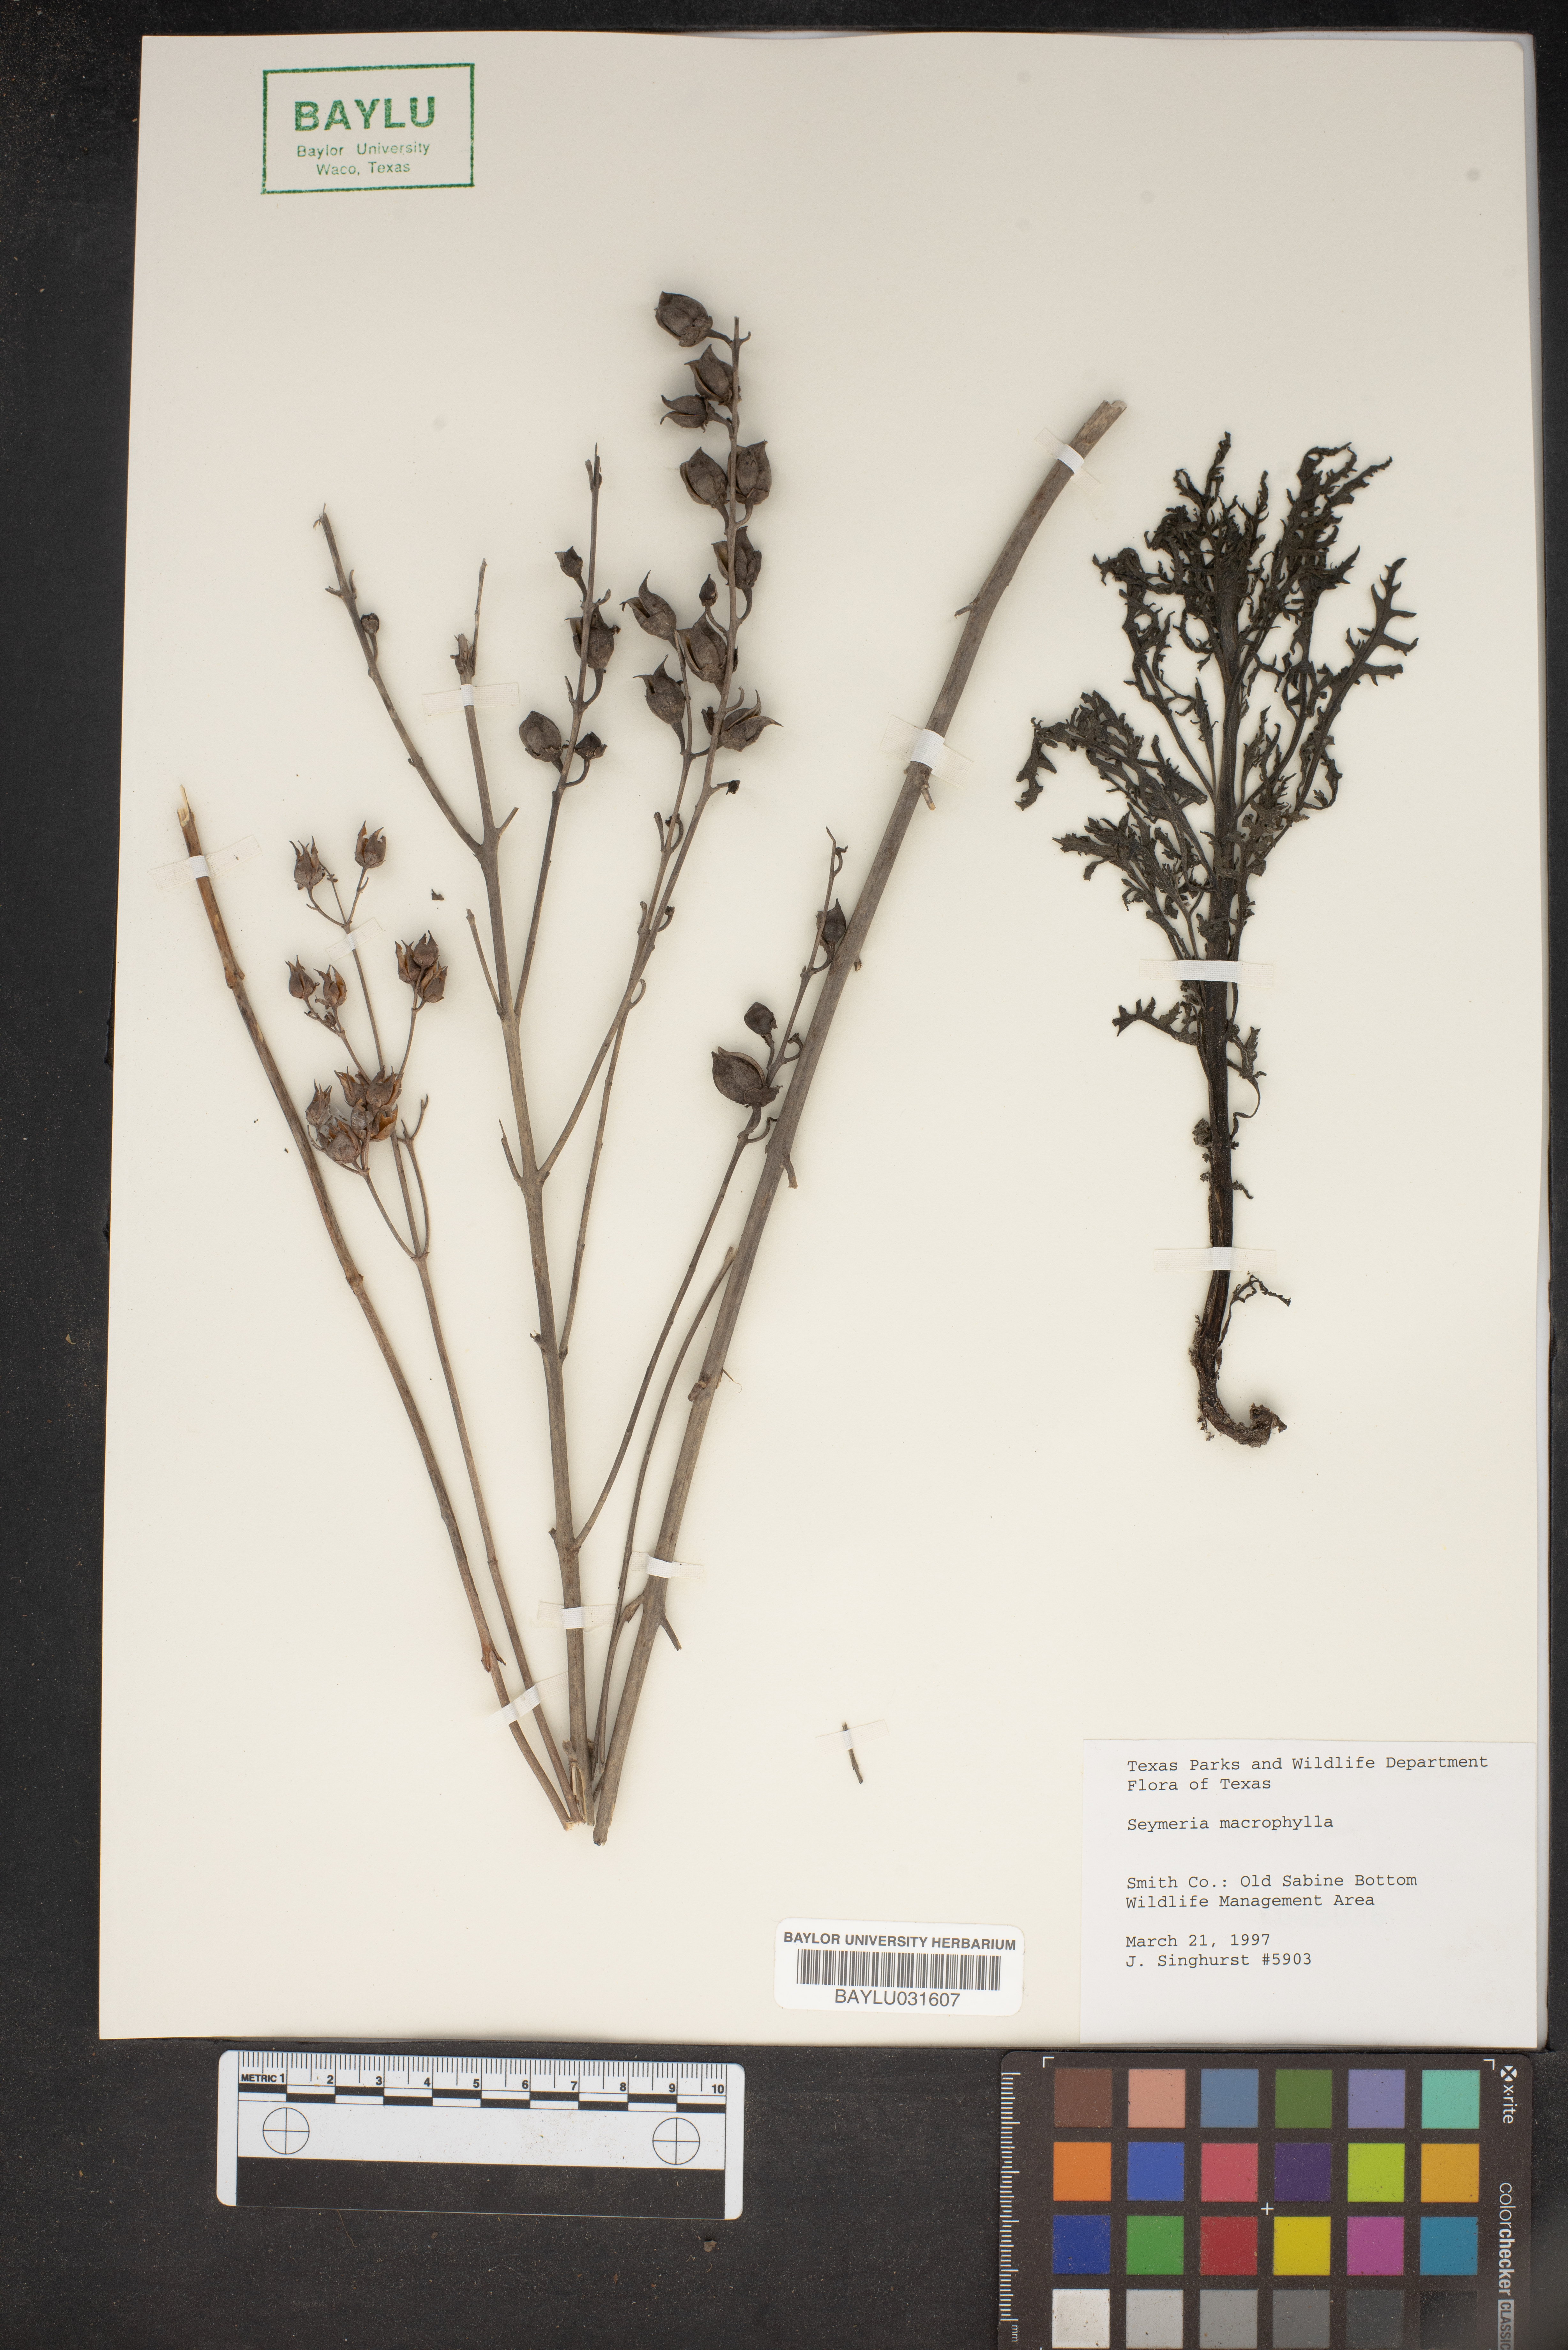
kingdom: Plantae
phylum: Tracheophyta
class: Magnoliopsida
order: Lamiales
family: Orobanchaceae
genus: Dasistoma
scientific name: Dasistoma macrophyllum
